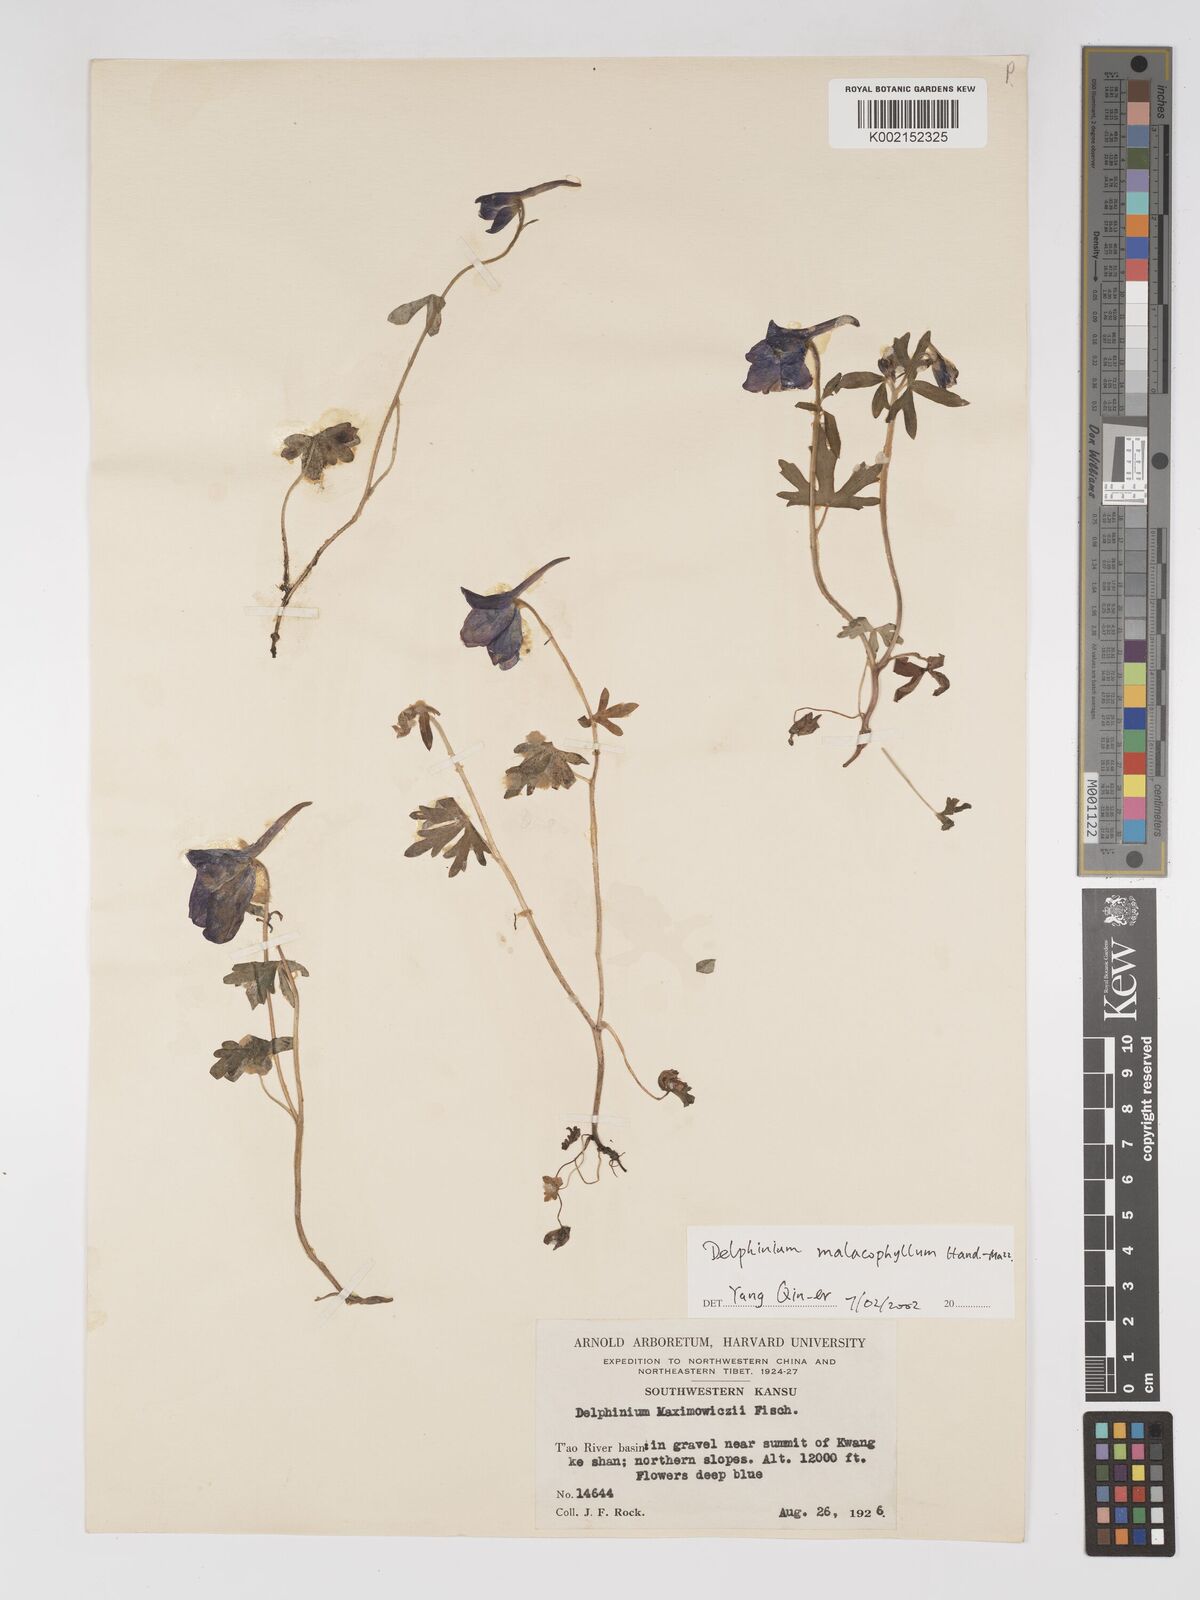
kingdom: Plantae
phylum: Tracheophyta
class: Magnoliopsida
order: Ranunculales
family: Ranunculaceae
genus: Delphinium
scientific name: Delphinium malacophyllum
